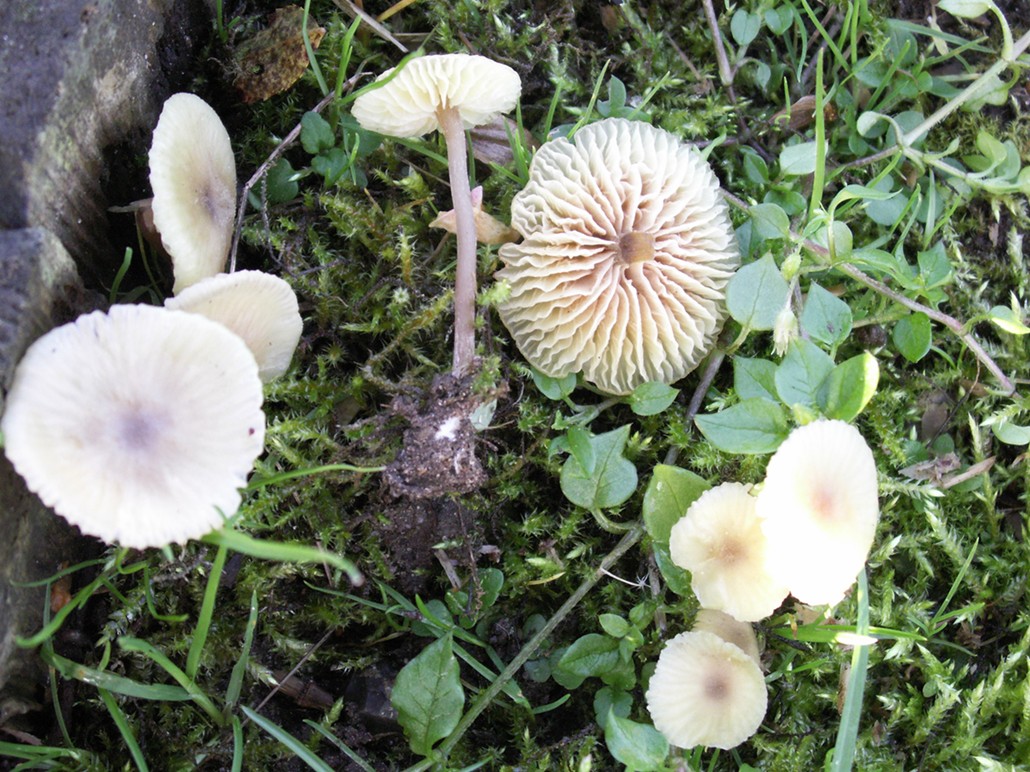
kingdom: Fungi
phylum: Basidiomycota
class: Agaricomycetes
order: Agaricales
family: Entolomataceae
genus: Entoloma
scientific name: Entoloma pleopodium
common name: duftende rødblad
